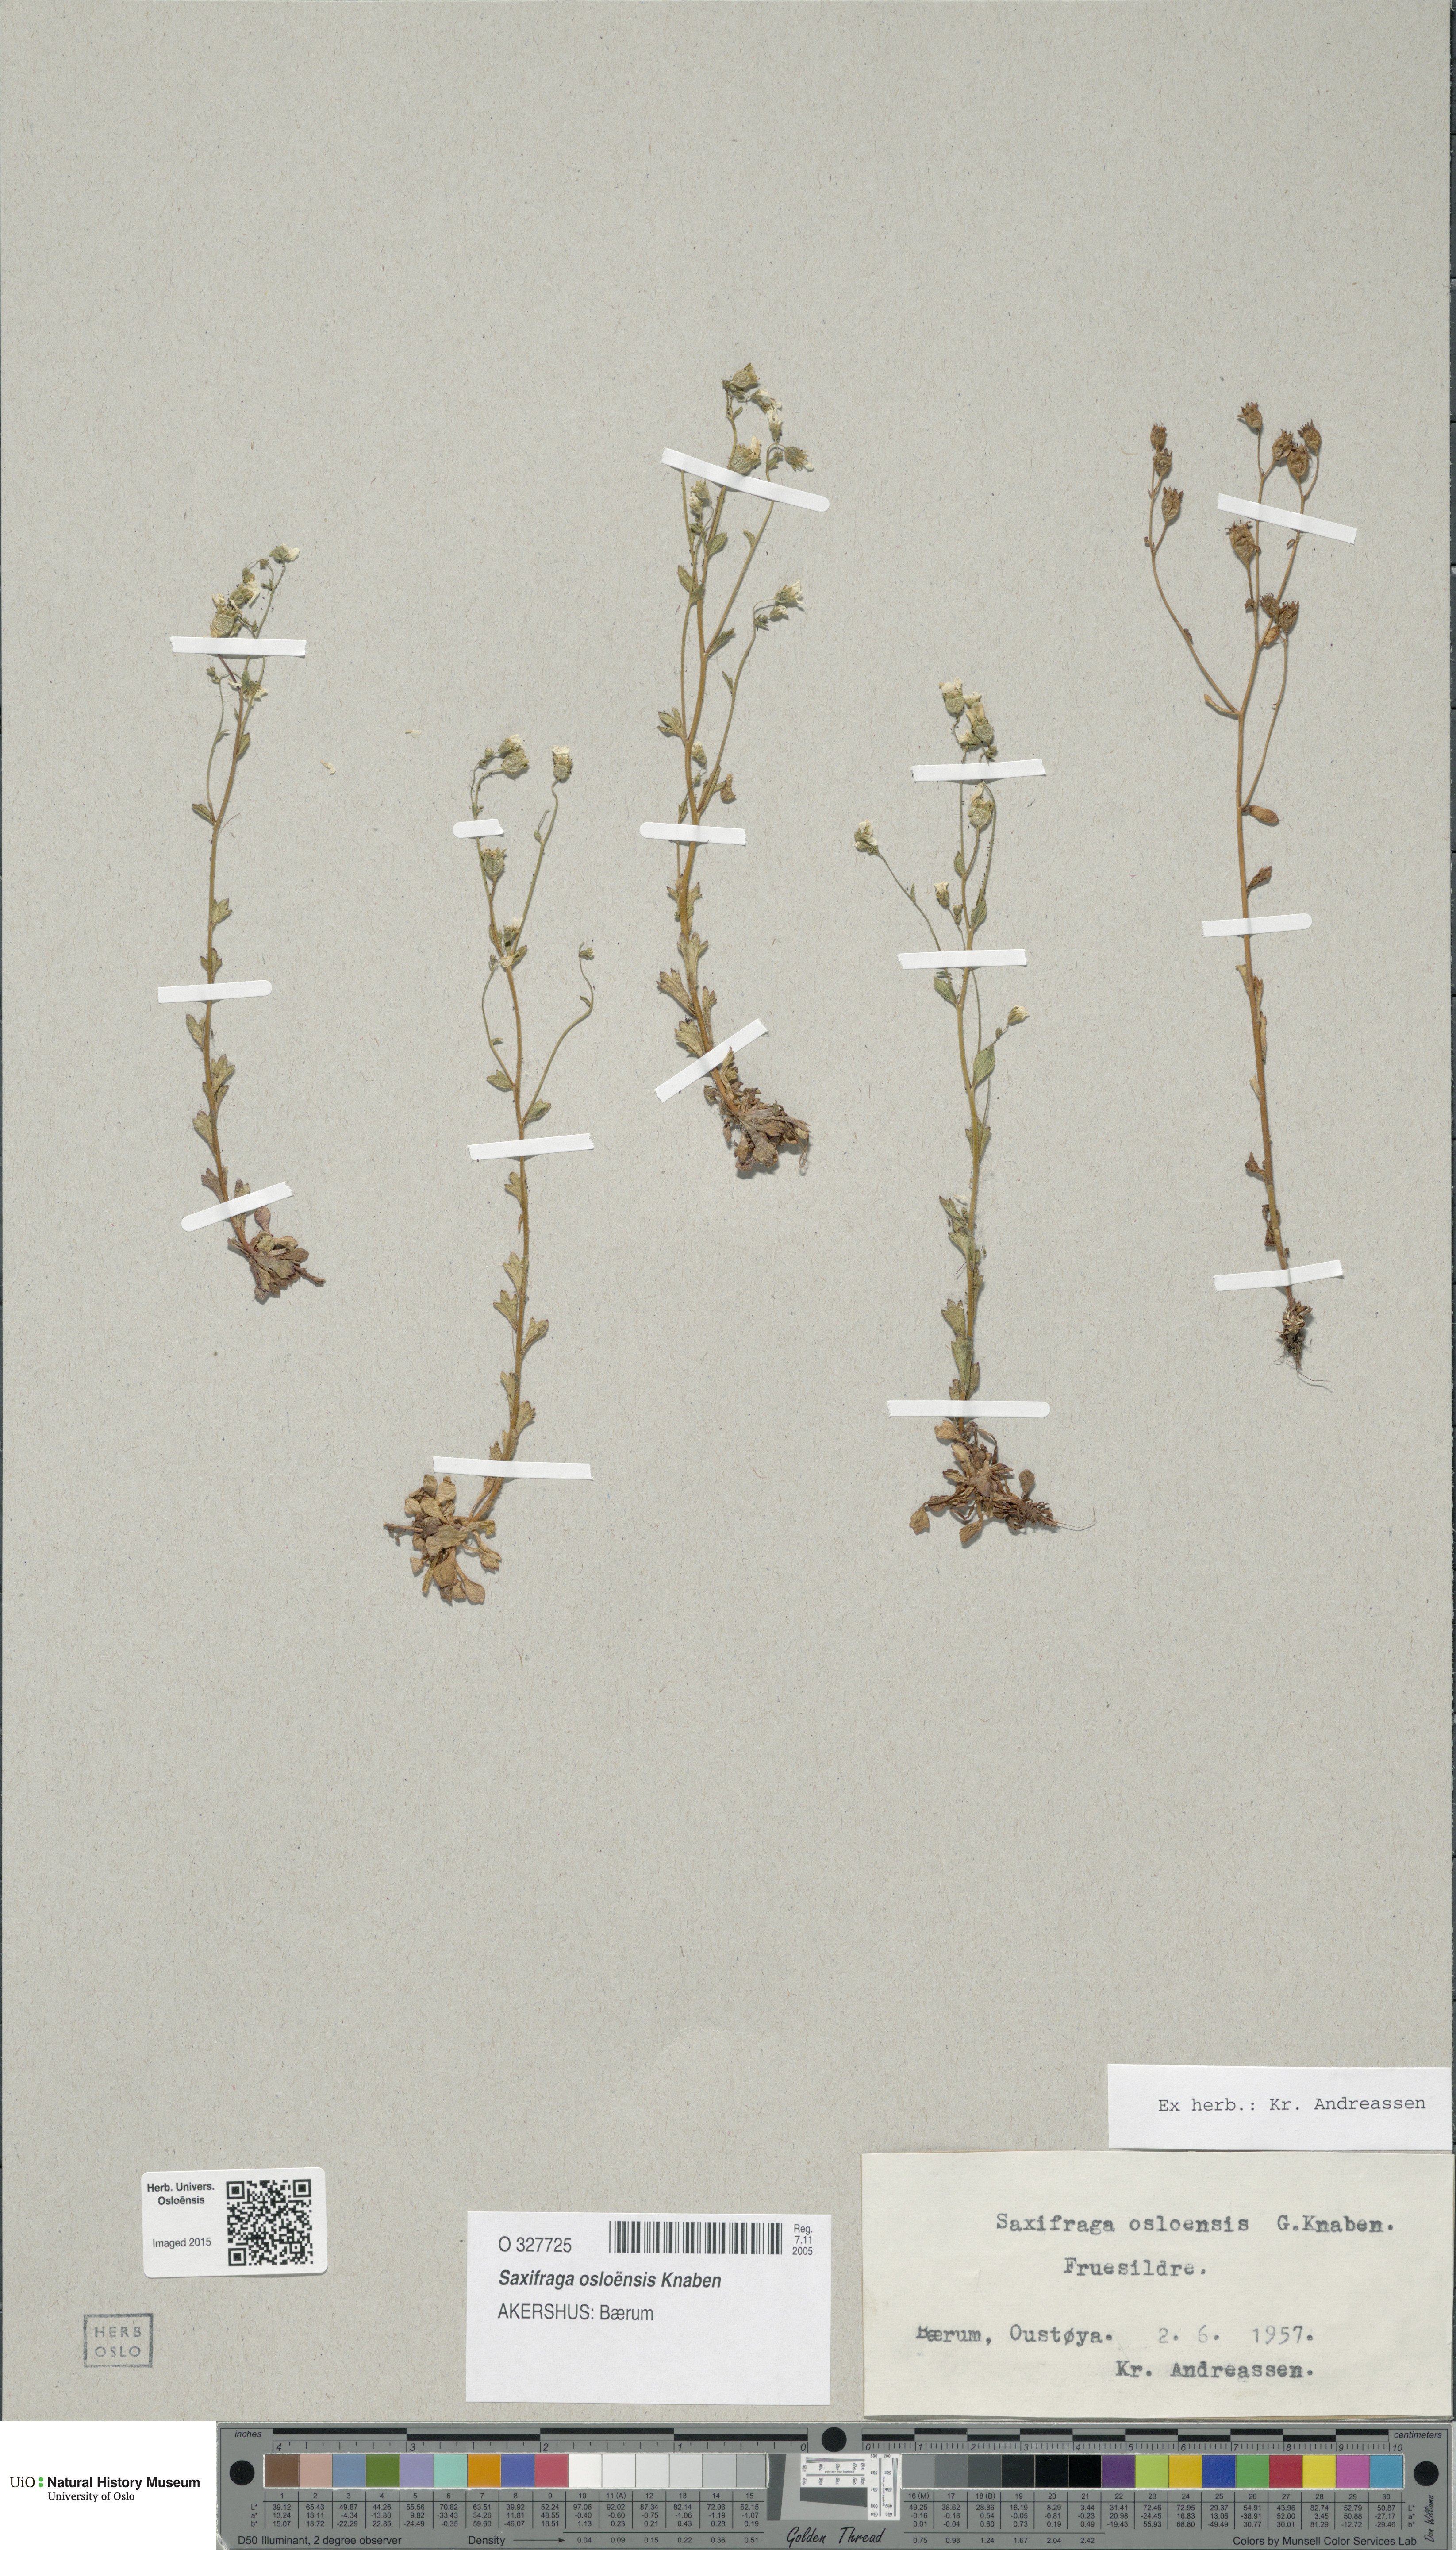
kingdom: Plantae
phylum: Tracheophyta
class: Magnoliopsida
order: Saxifragales
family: Saxifragaceae
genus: Saxifraga
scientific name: Saxifraga osloensis
